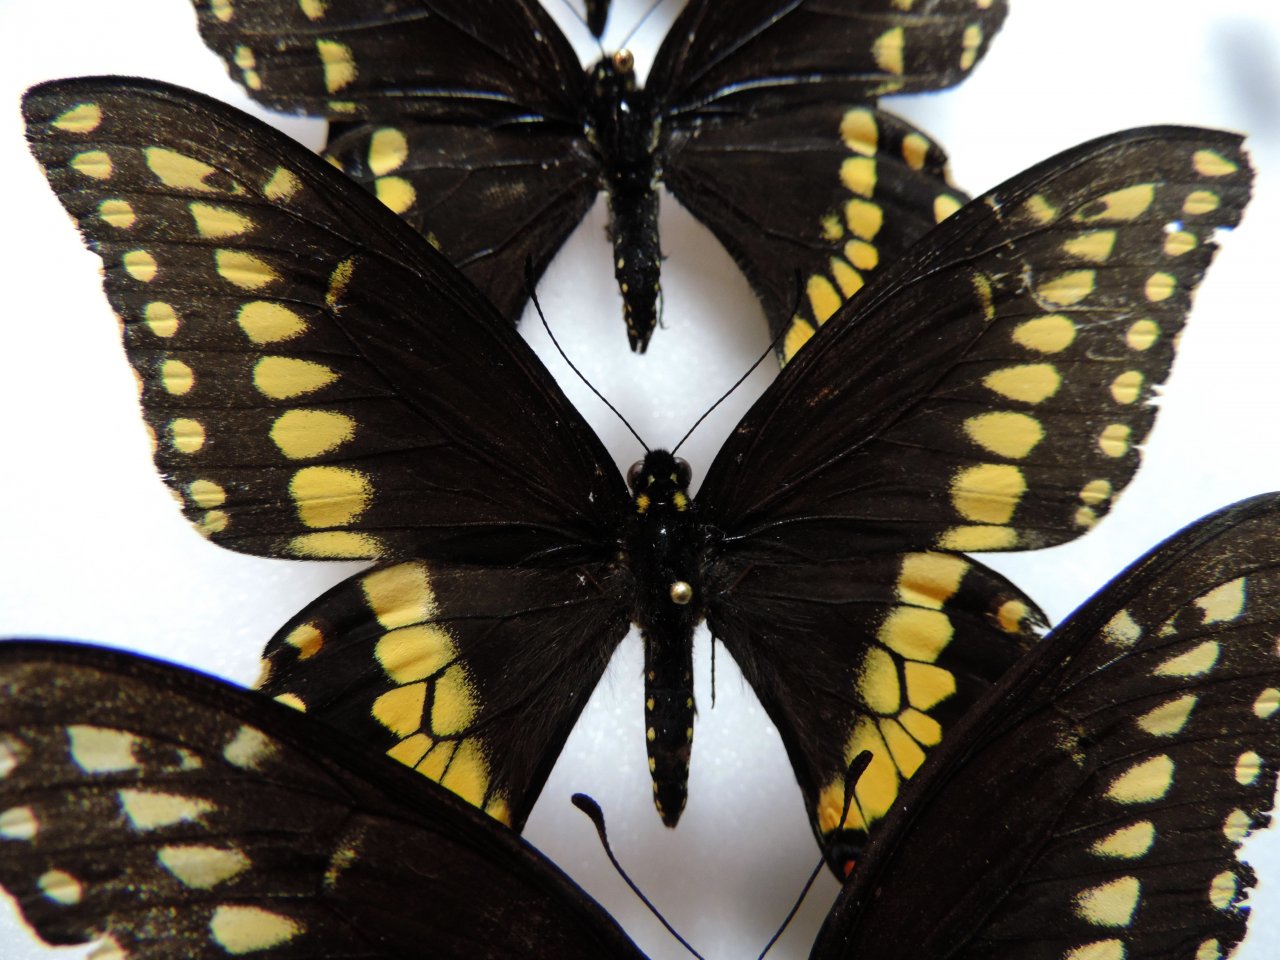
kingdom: Animalia
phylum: Arthropoda
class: Insecta
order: Lepidoptera
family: Papilionidae
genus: Papilio
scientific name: Papilio polyxenes
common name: Black Swallowtail
